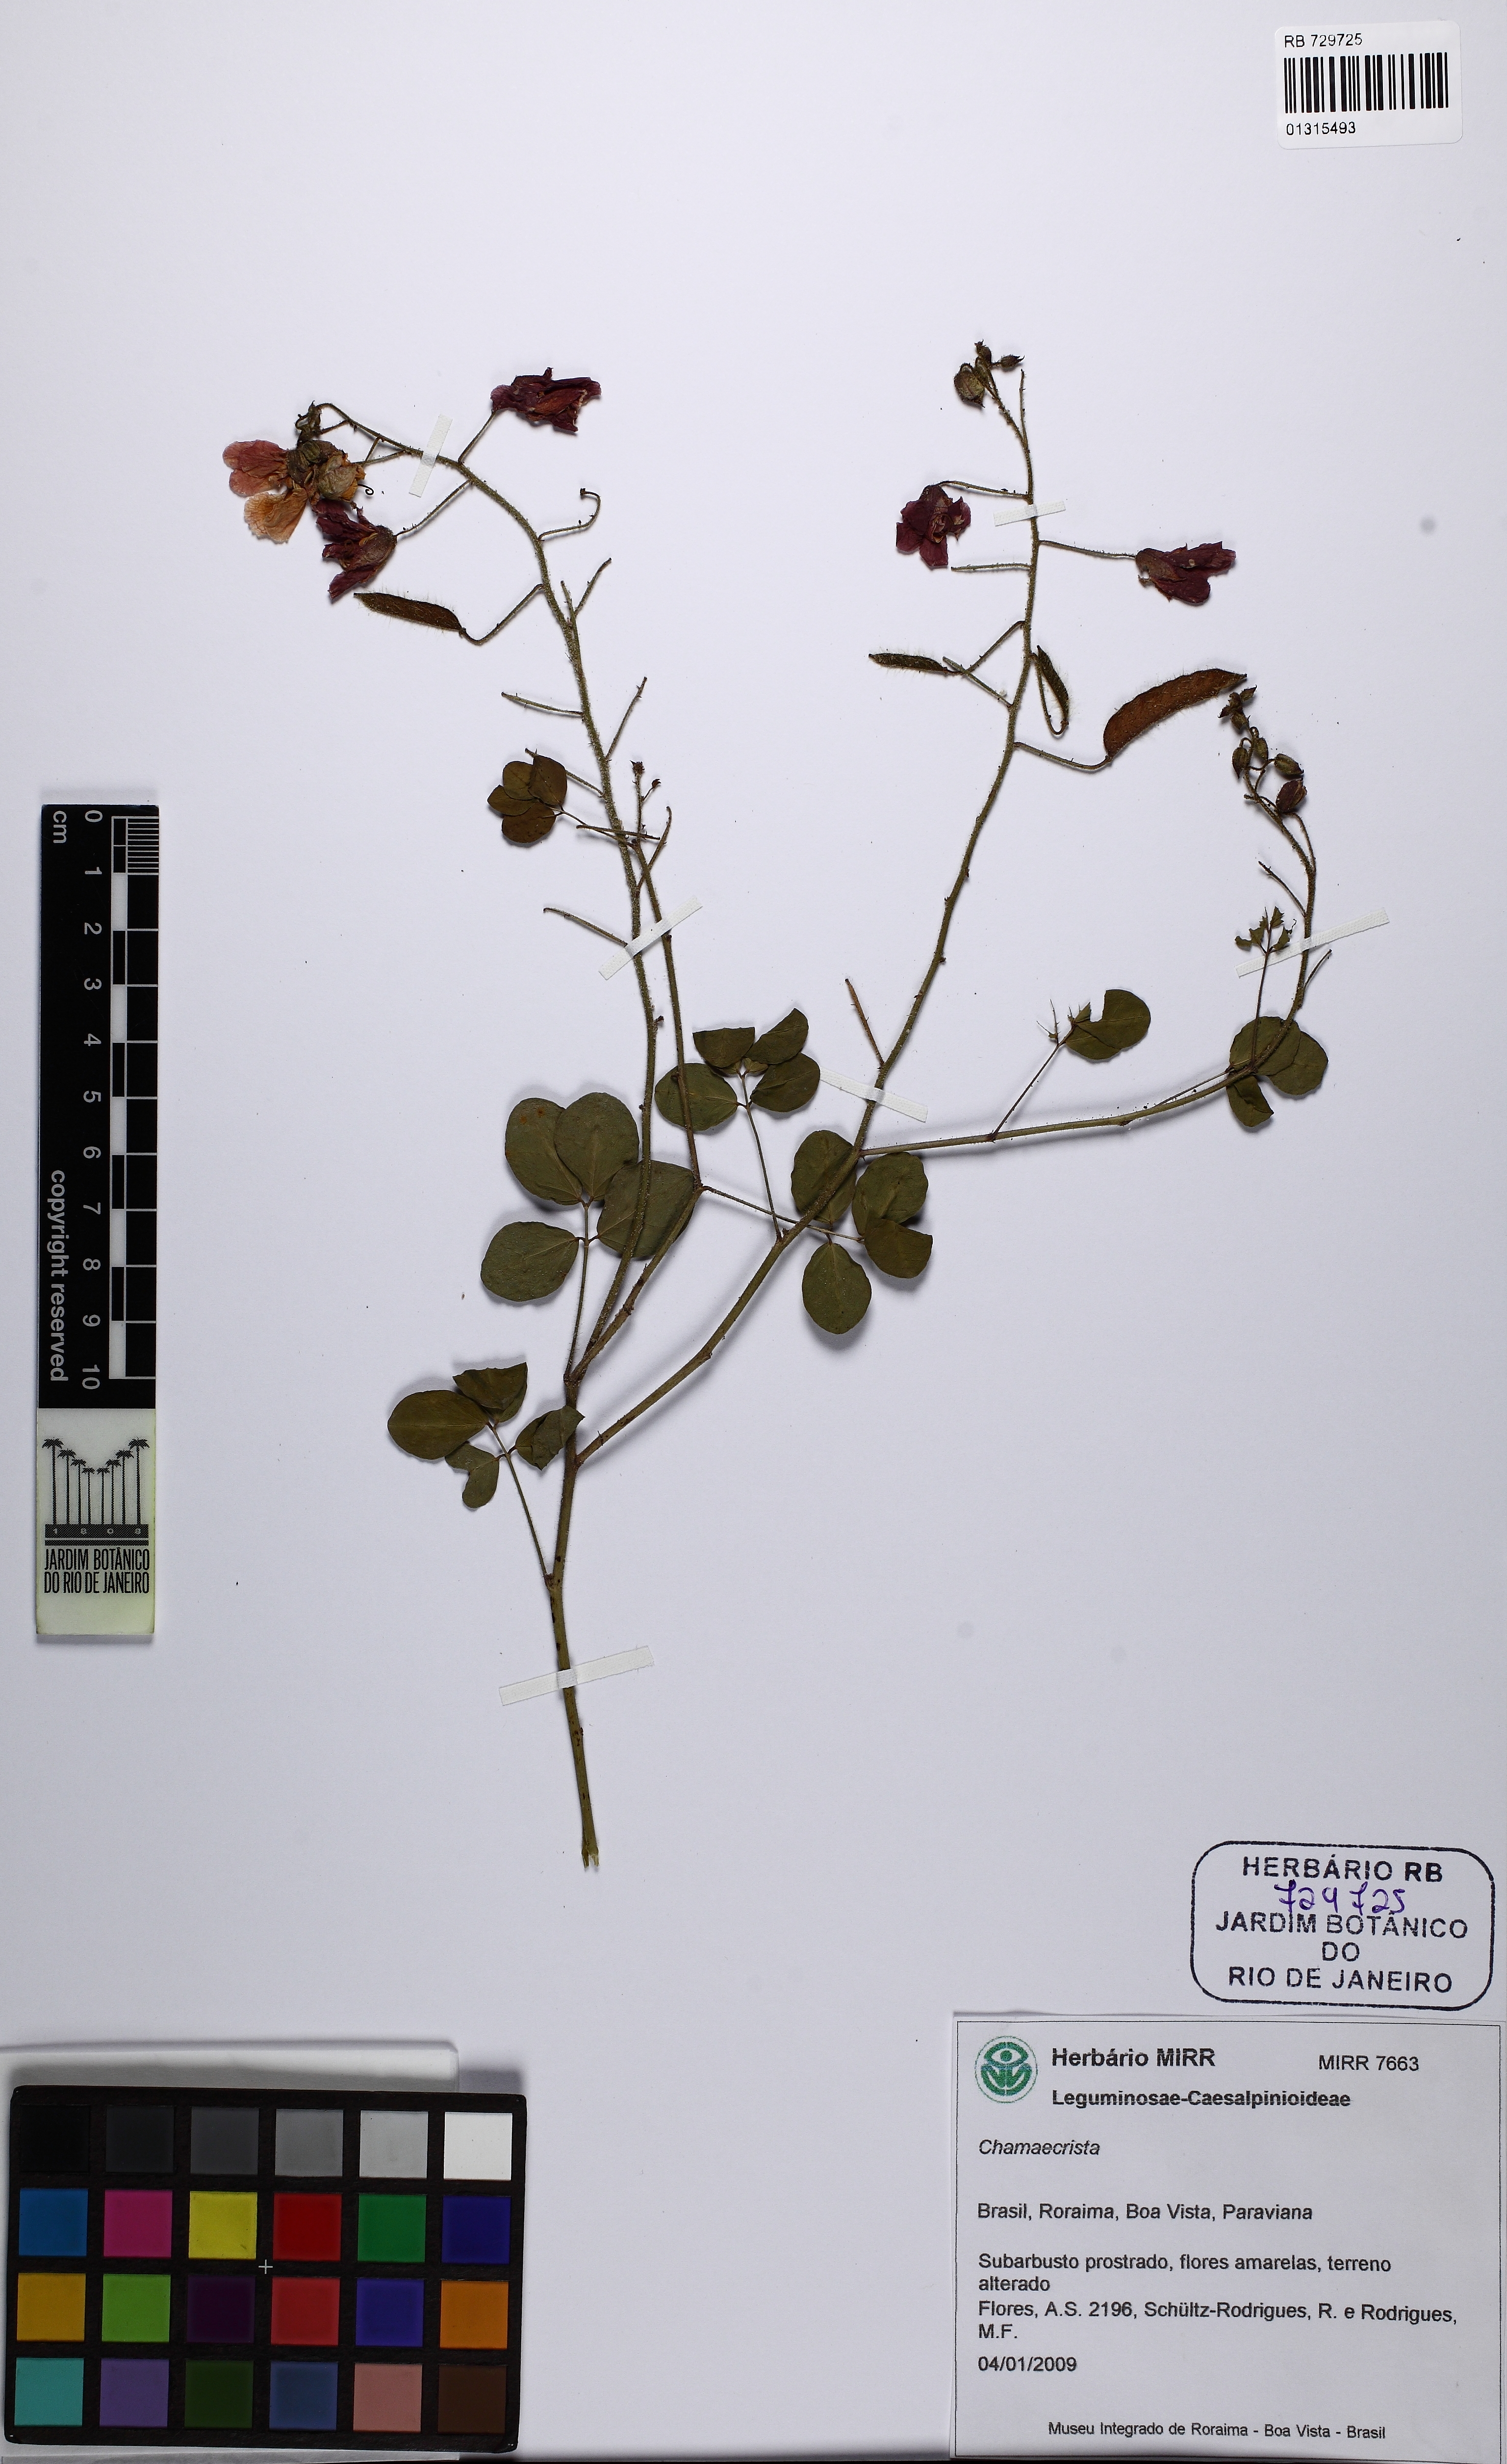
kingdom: Plantae
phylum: Tracheophyta
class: Magnoliopsida
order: Fabales
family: Fabaceae
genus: Chamaecrista
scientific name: Chamaecrista
